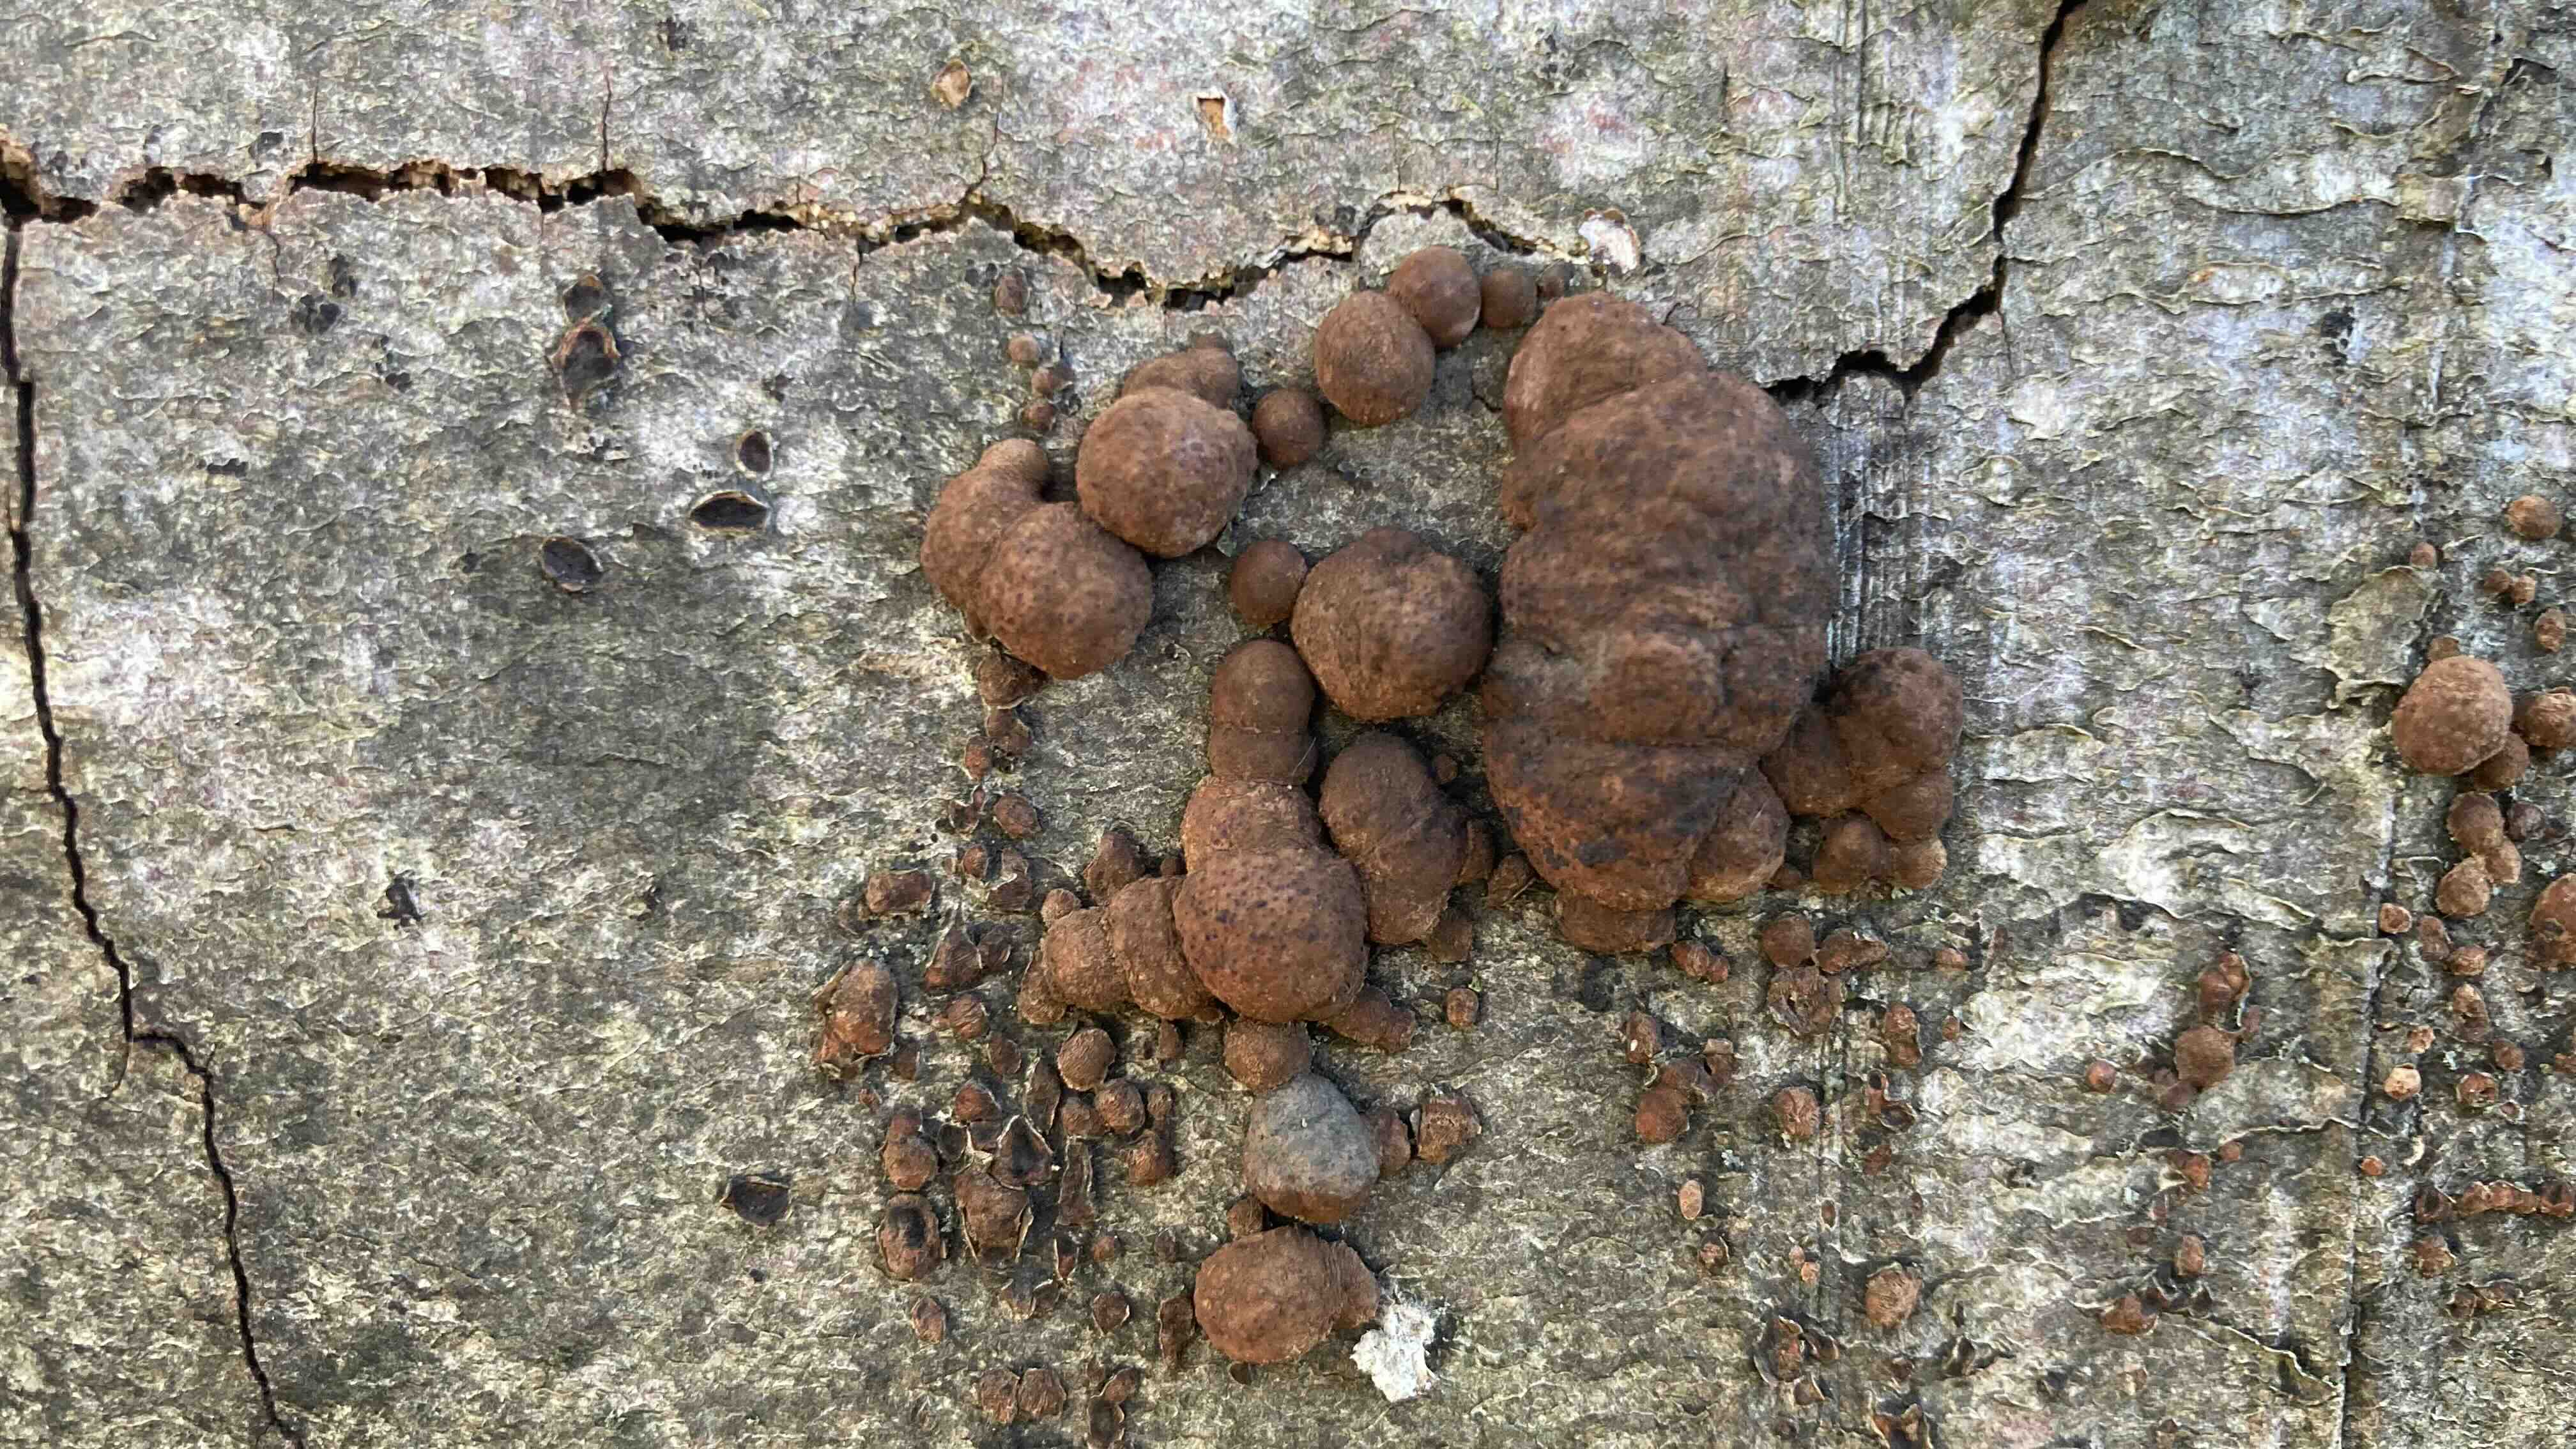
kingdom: Fungi
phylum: Ascomycota
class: Sordariomycetes
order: Xylariales
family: Hypoxylaceae
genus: Hypoxylon
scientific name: Hypoxylon fragiforme
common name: kuljordbær
